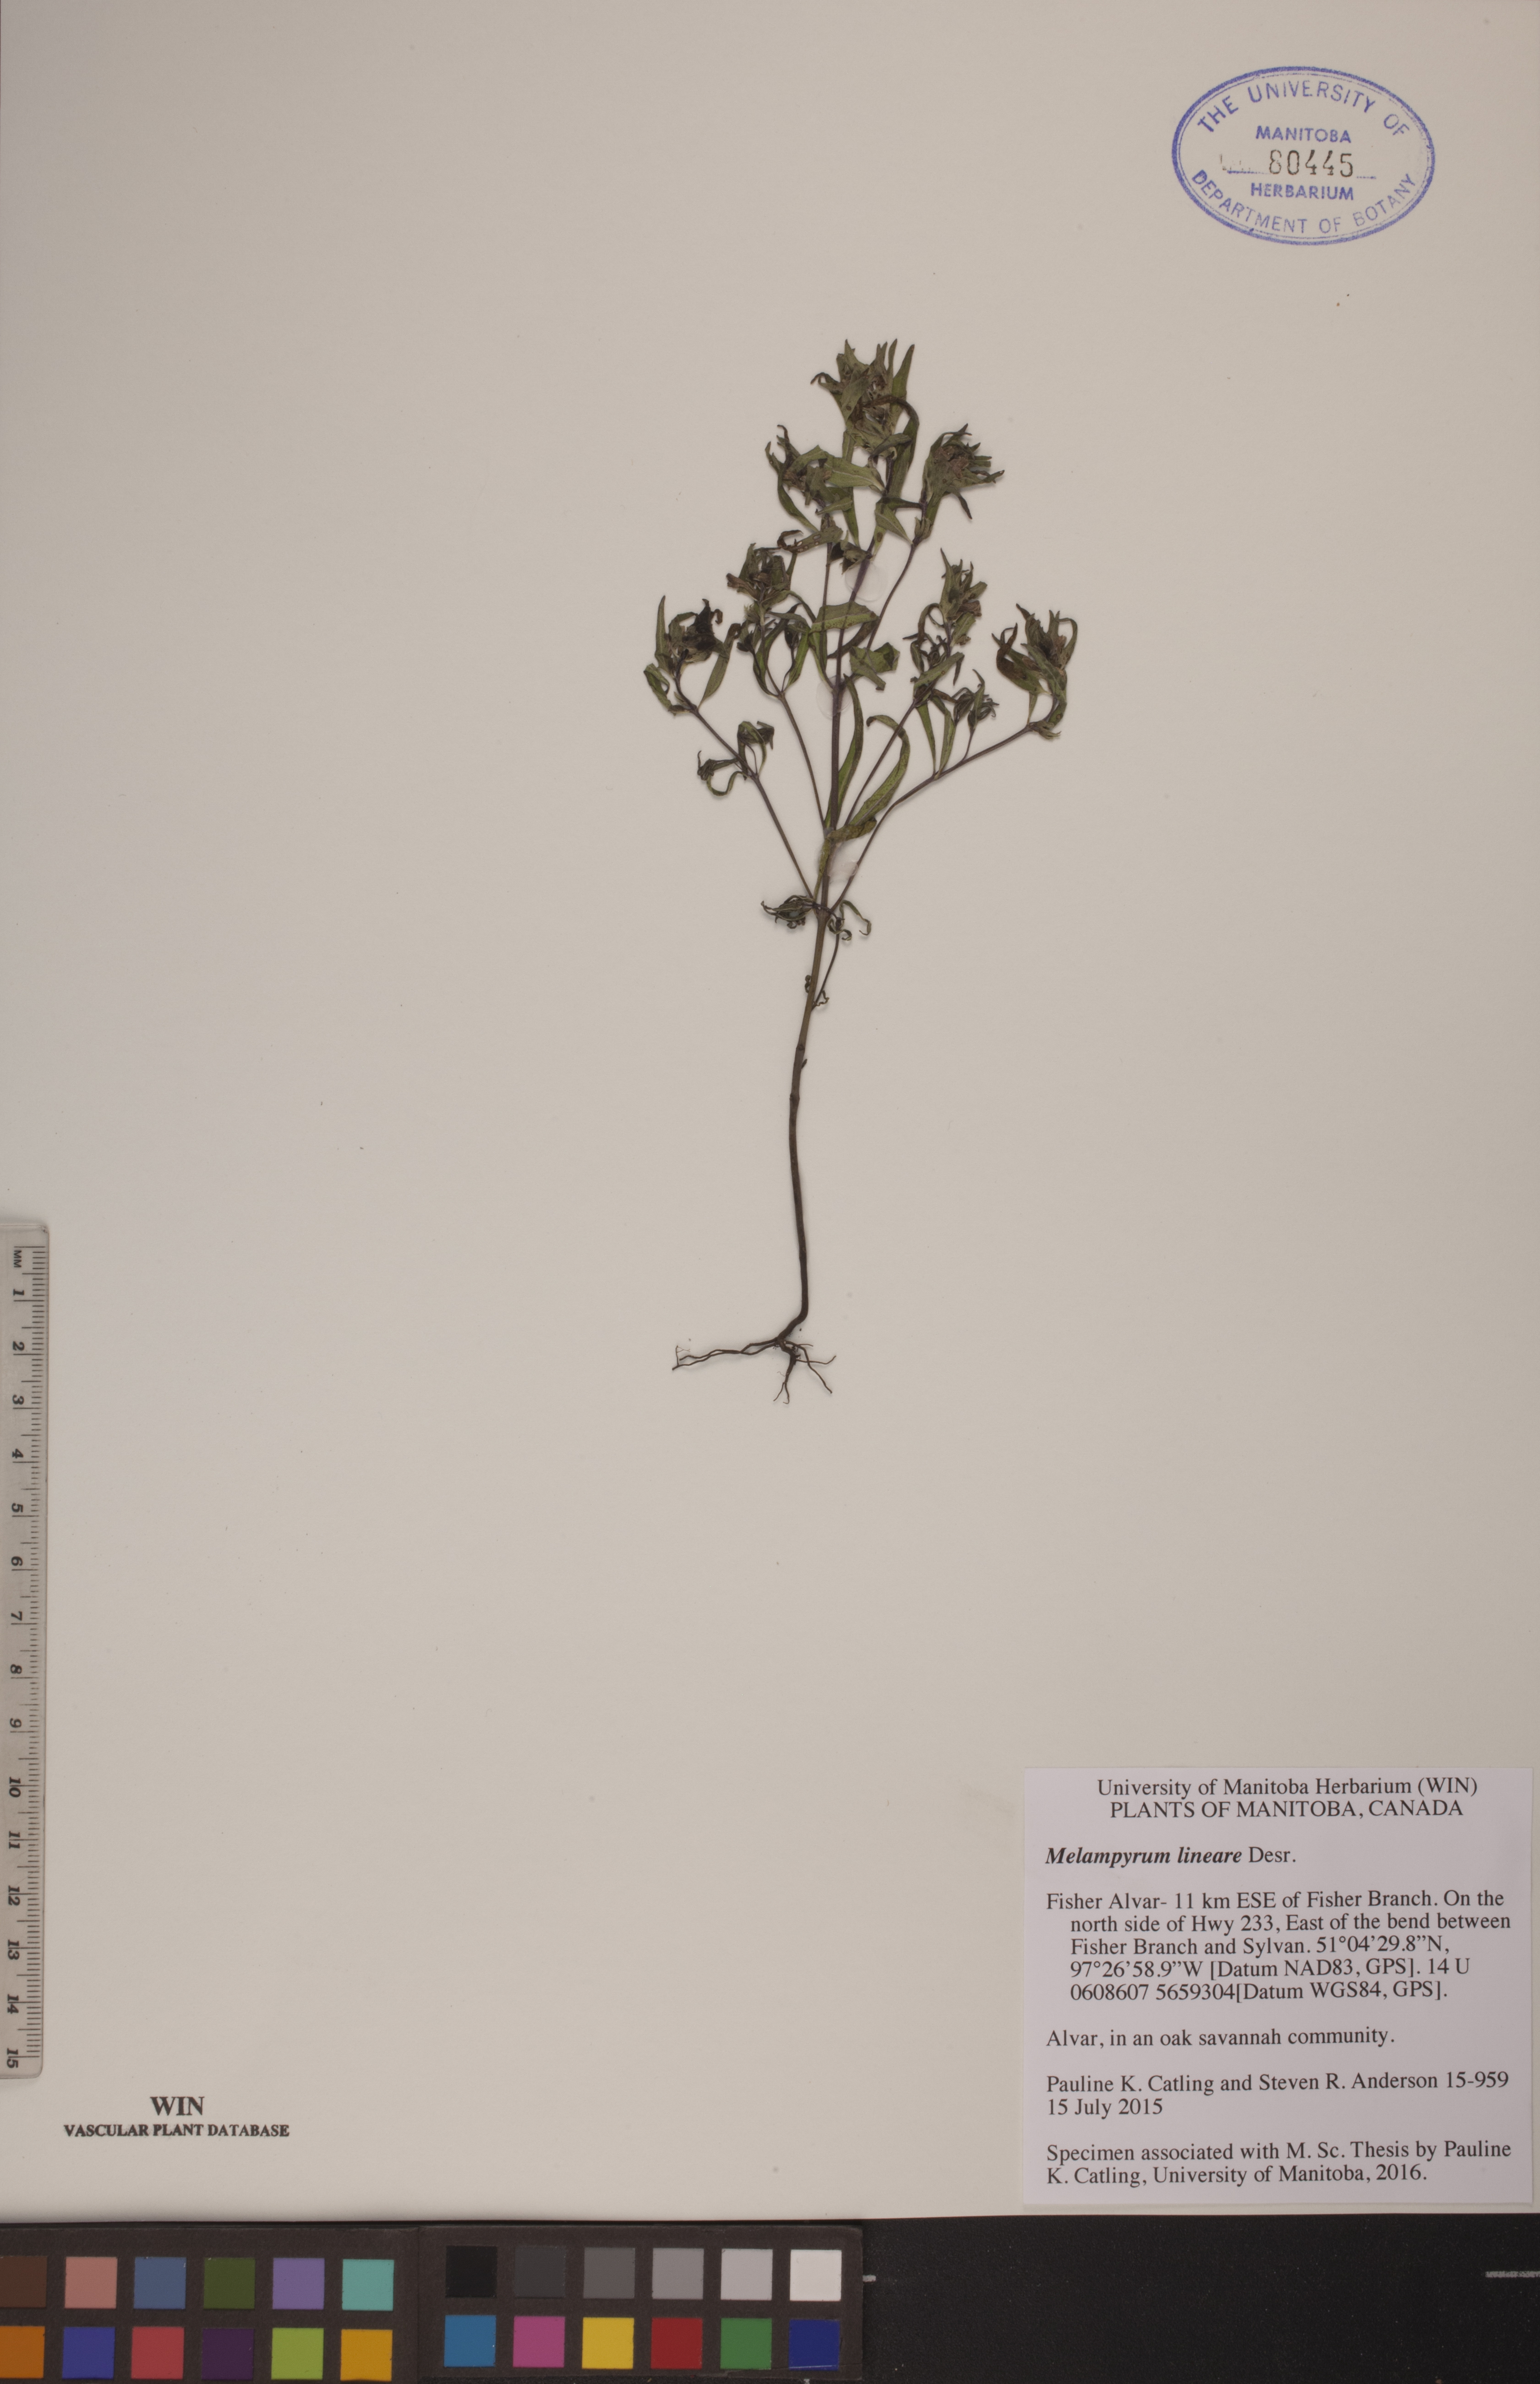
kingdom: Plantae
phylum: Tracheophyta
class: Magnoliopsida
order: Lamiales
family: Orobanchaceae
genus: Melampyrum
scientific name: Melampyrum lineare
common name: American cow-wheat
